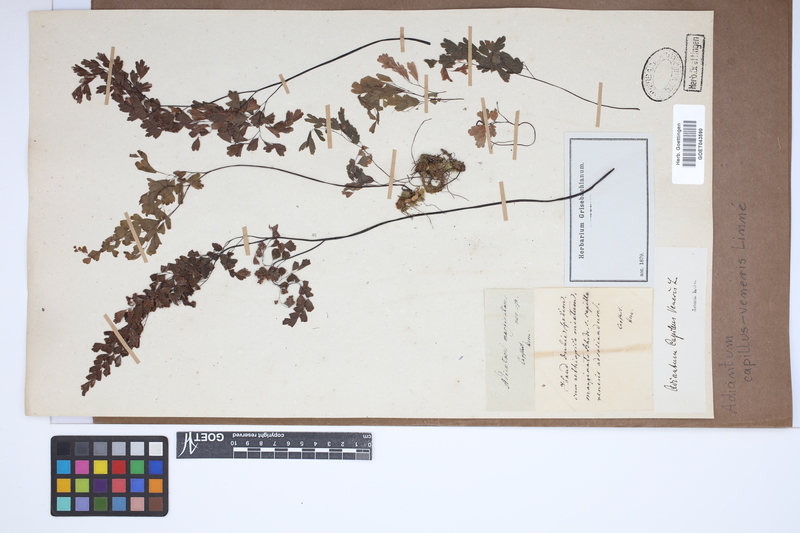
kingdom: Plantae
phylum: Tracheophyta
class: Polypodiopsida
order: Polypodiales
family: Pteridaceae
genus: Adiantum
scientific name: Adiantum capillus-veneris
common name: Maidenhair fern
